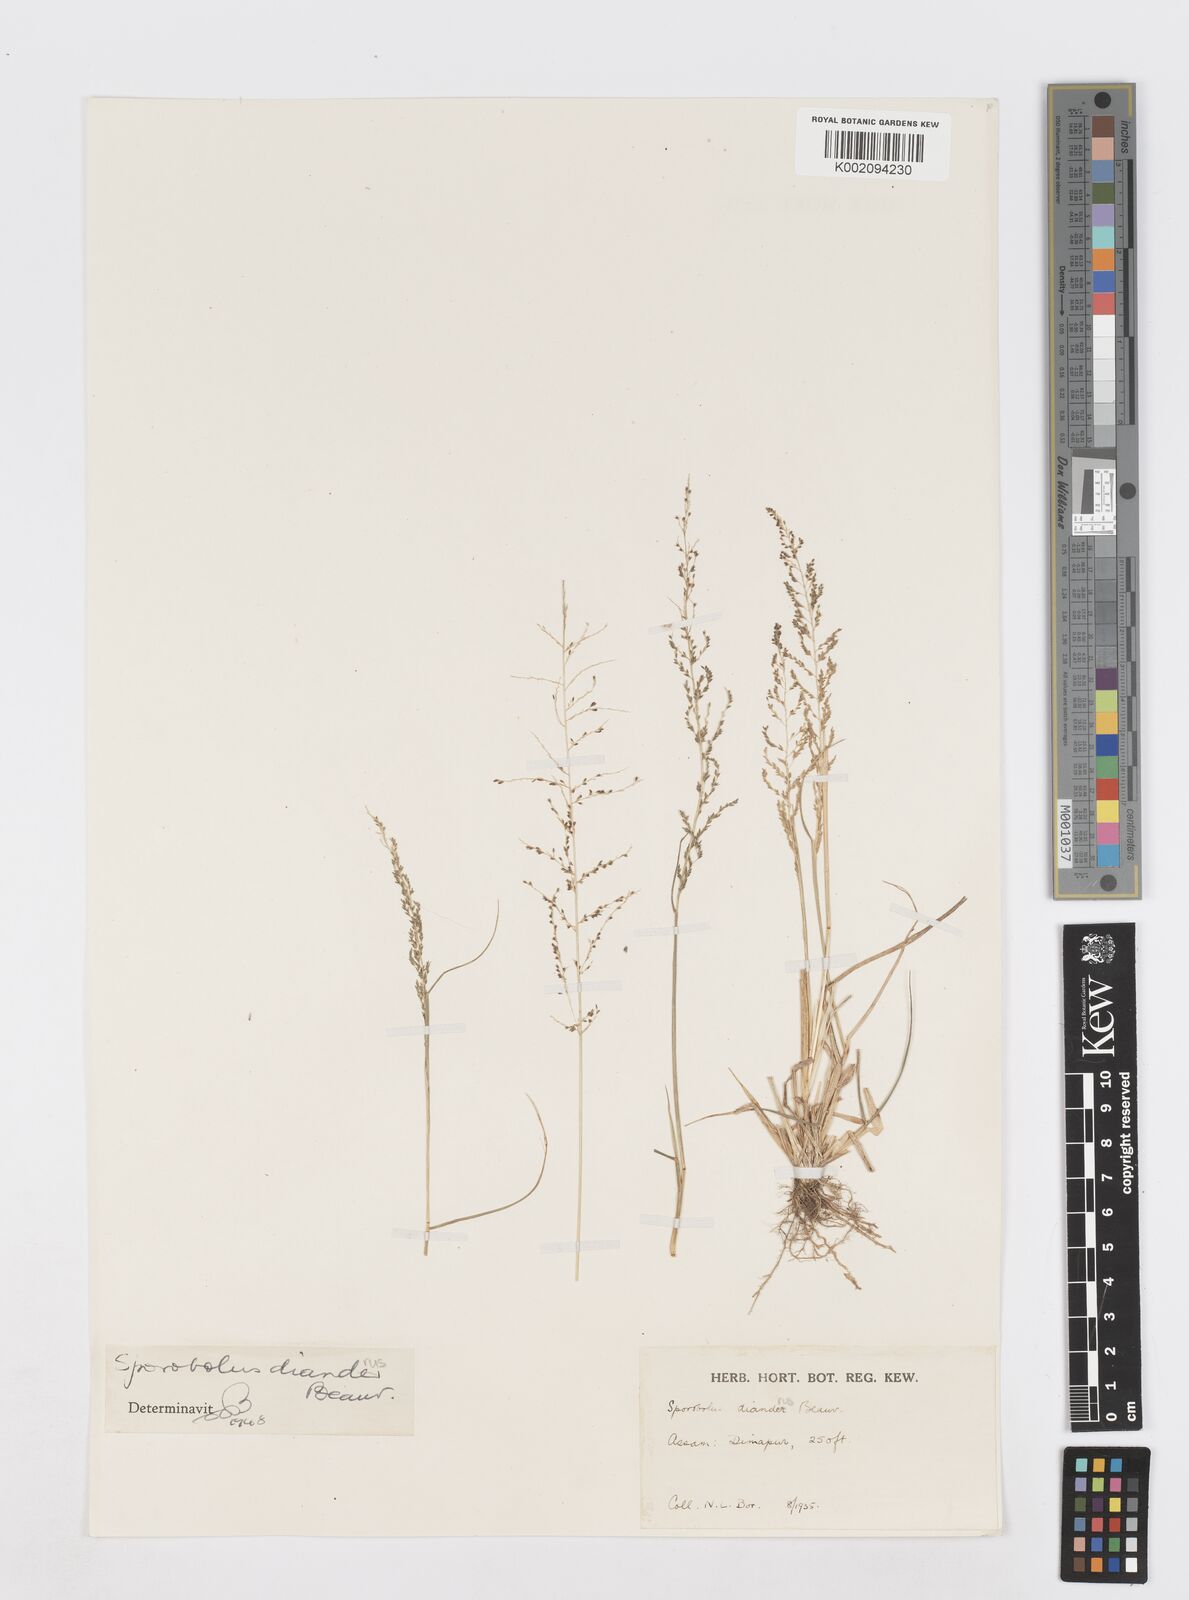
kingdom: Plantae
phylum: Tracheophyta
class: Liliopsida
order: Poales
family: Poaceae
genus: Sporobolus
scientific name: Sporobolus diandrus
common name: Tussock dropseed
